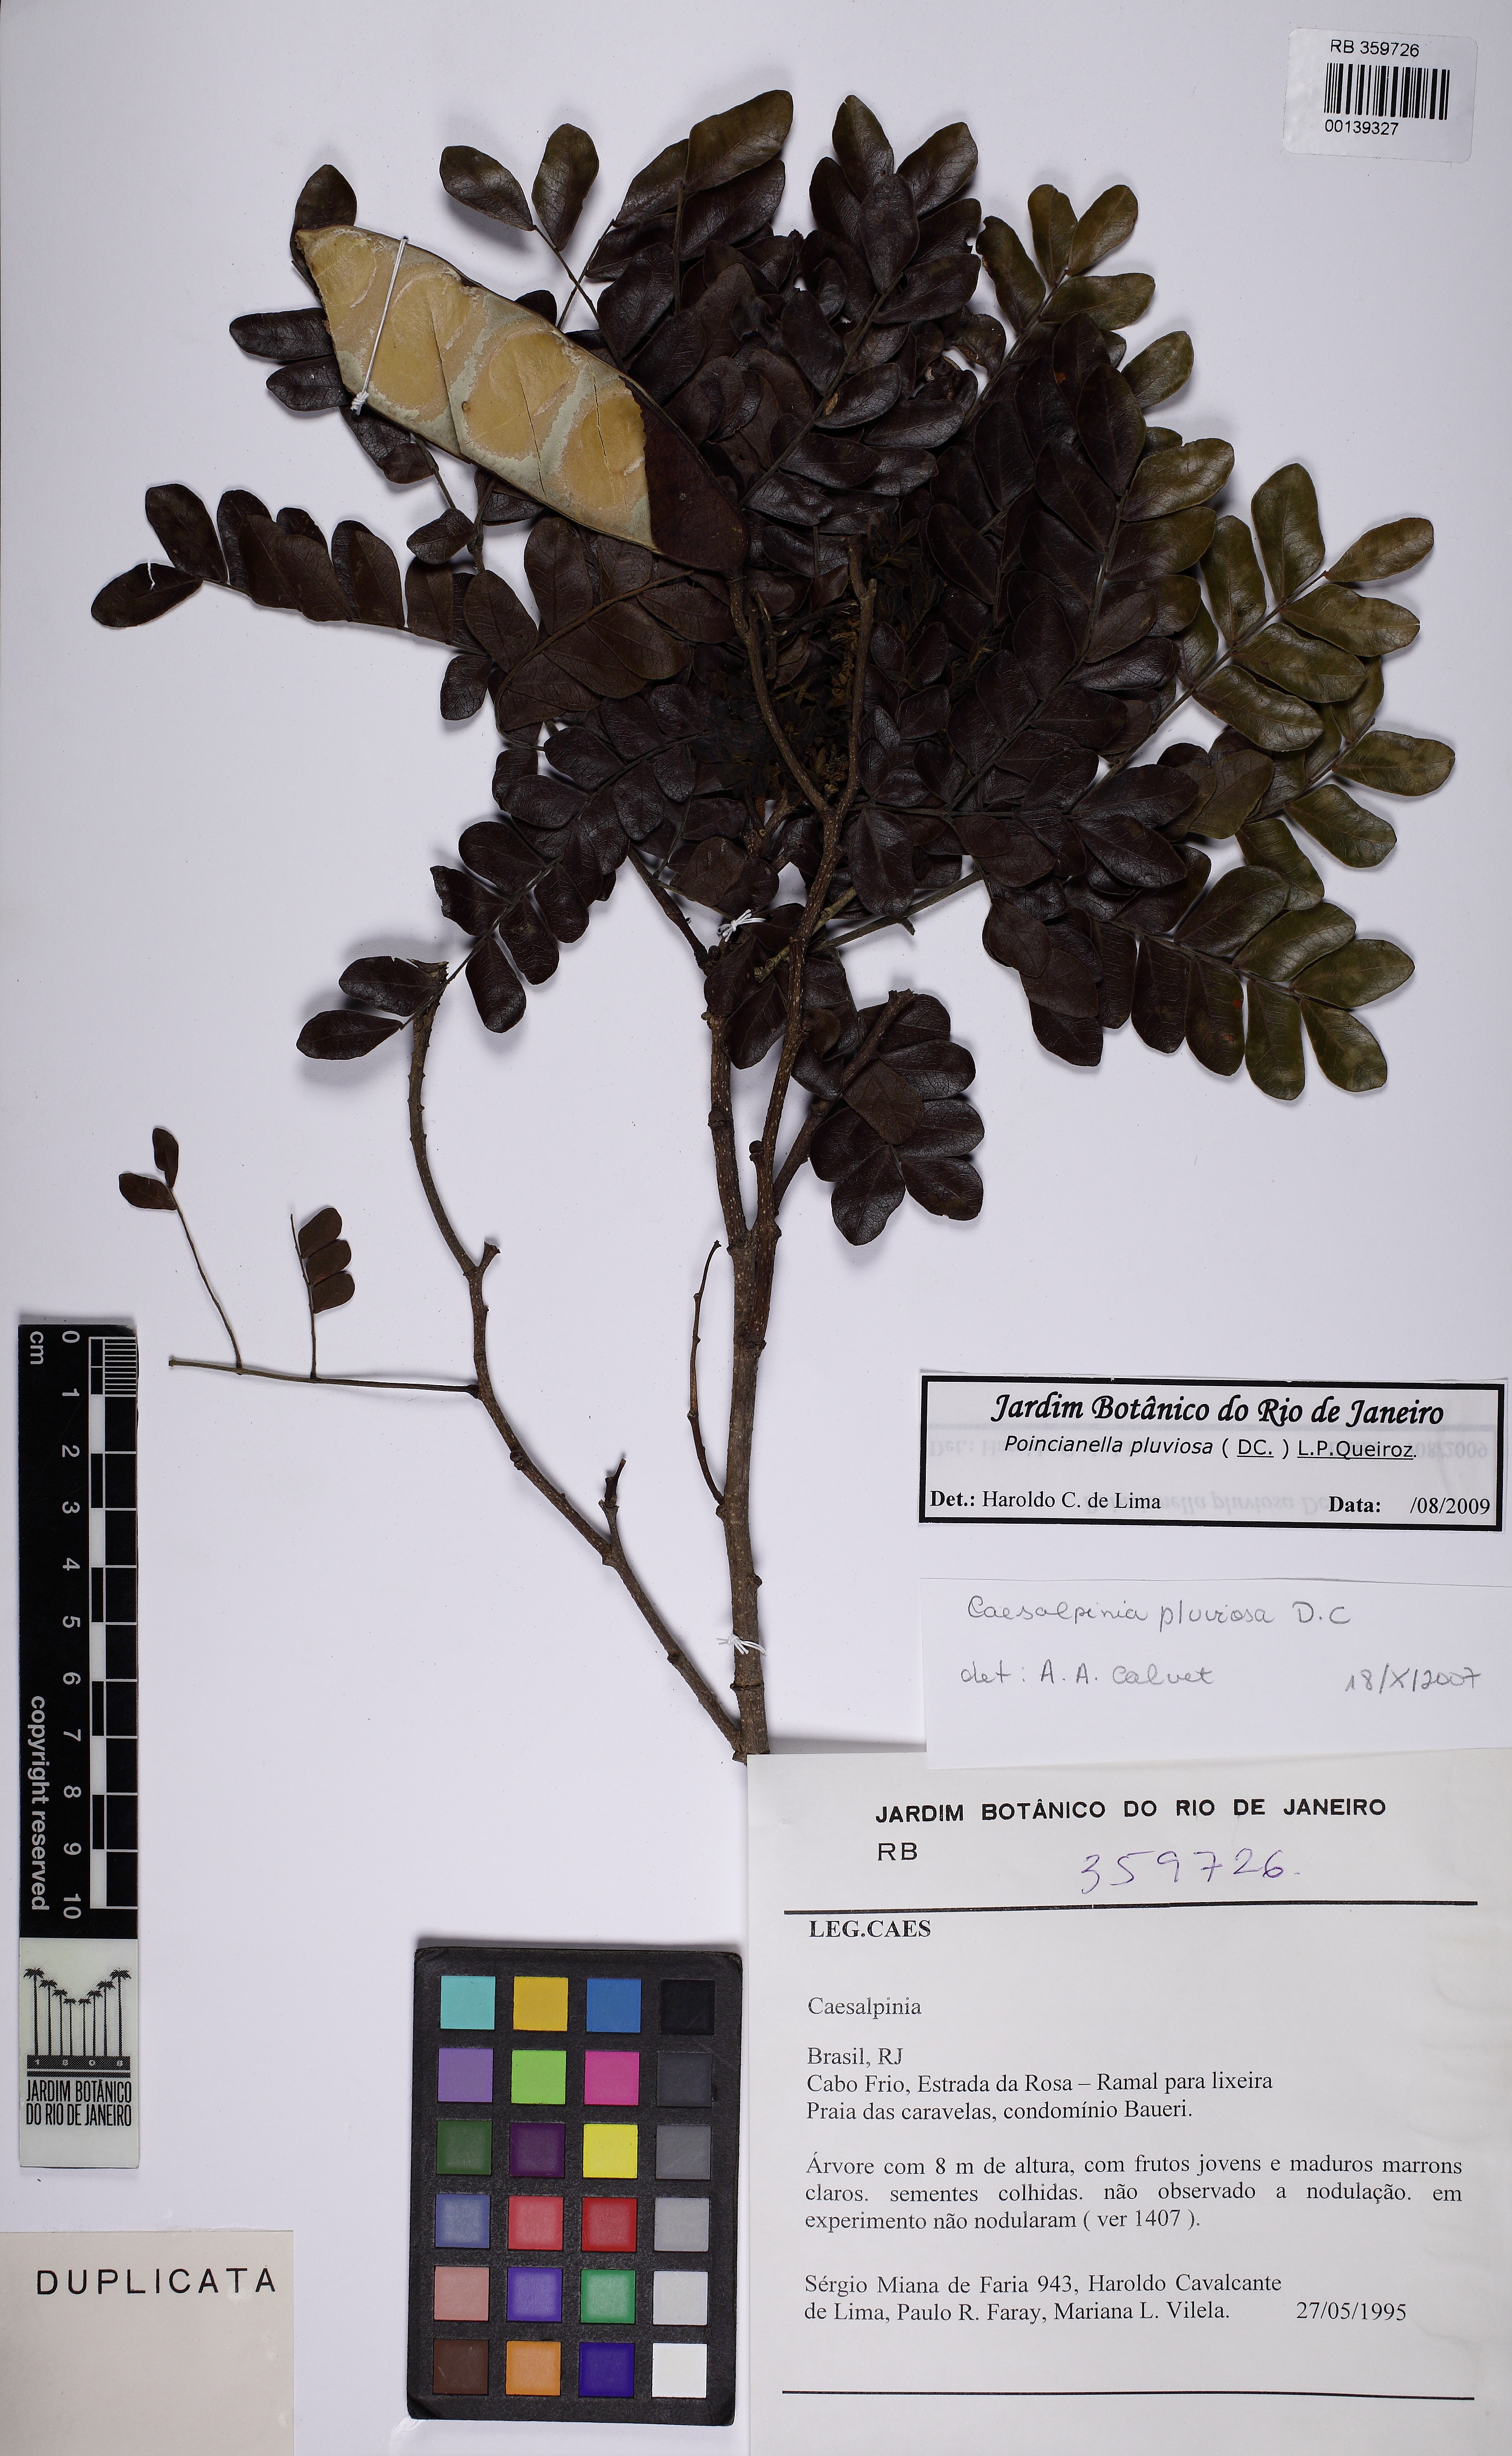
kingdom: Plantae
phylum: Tracheophyta
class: Magnoliopsida
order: Fabales
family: Fabaceae
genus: Cenostigma
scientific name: Cenostigma pluviosum
